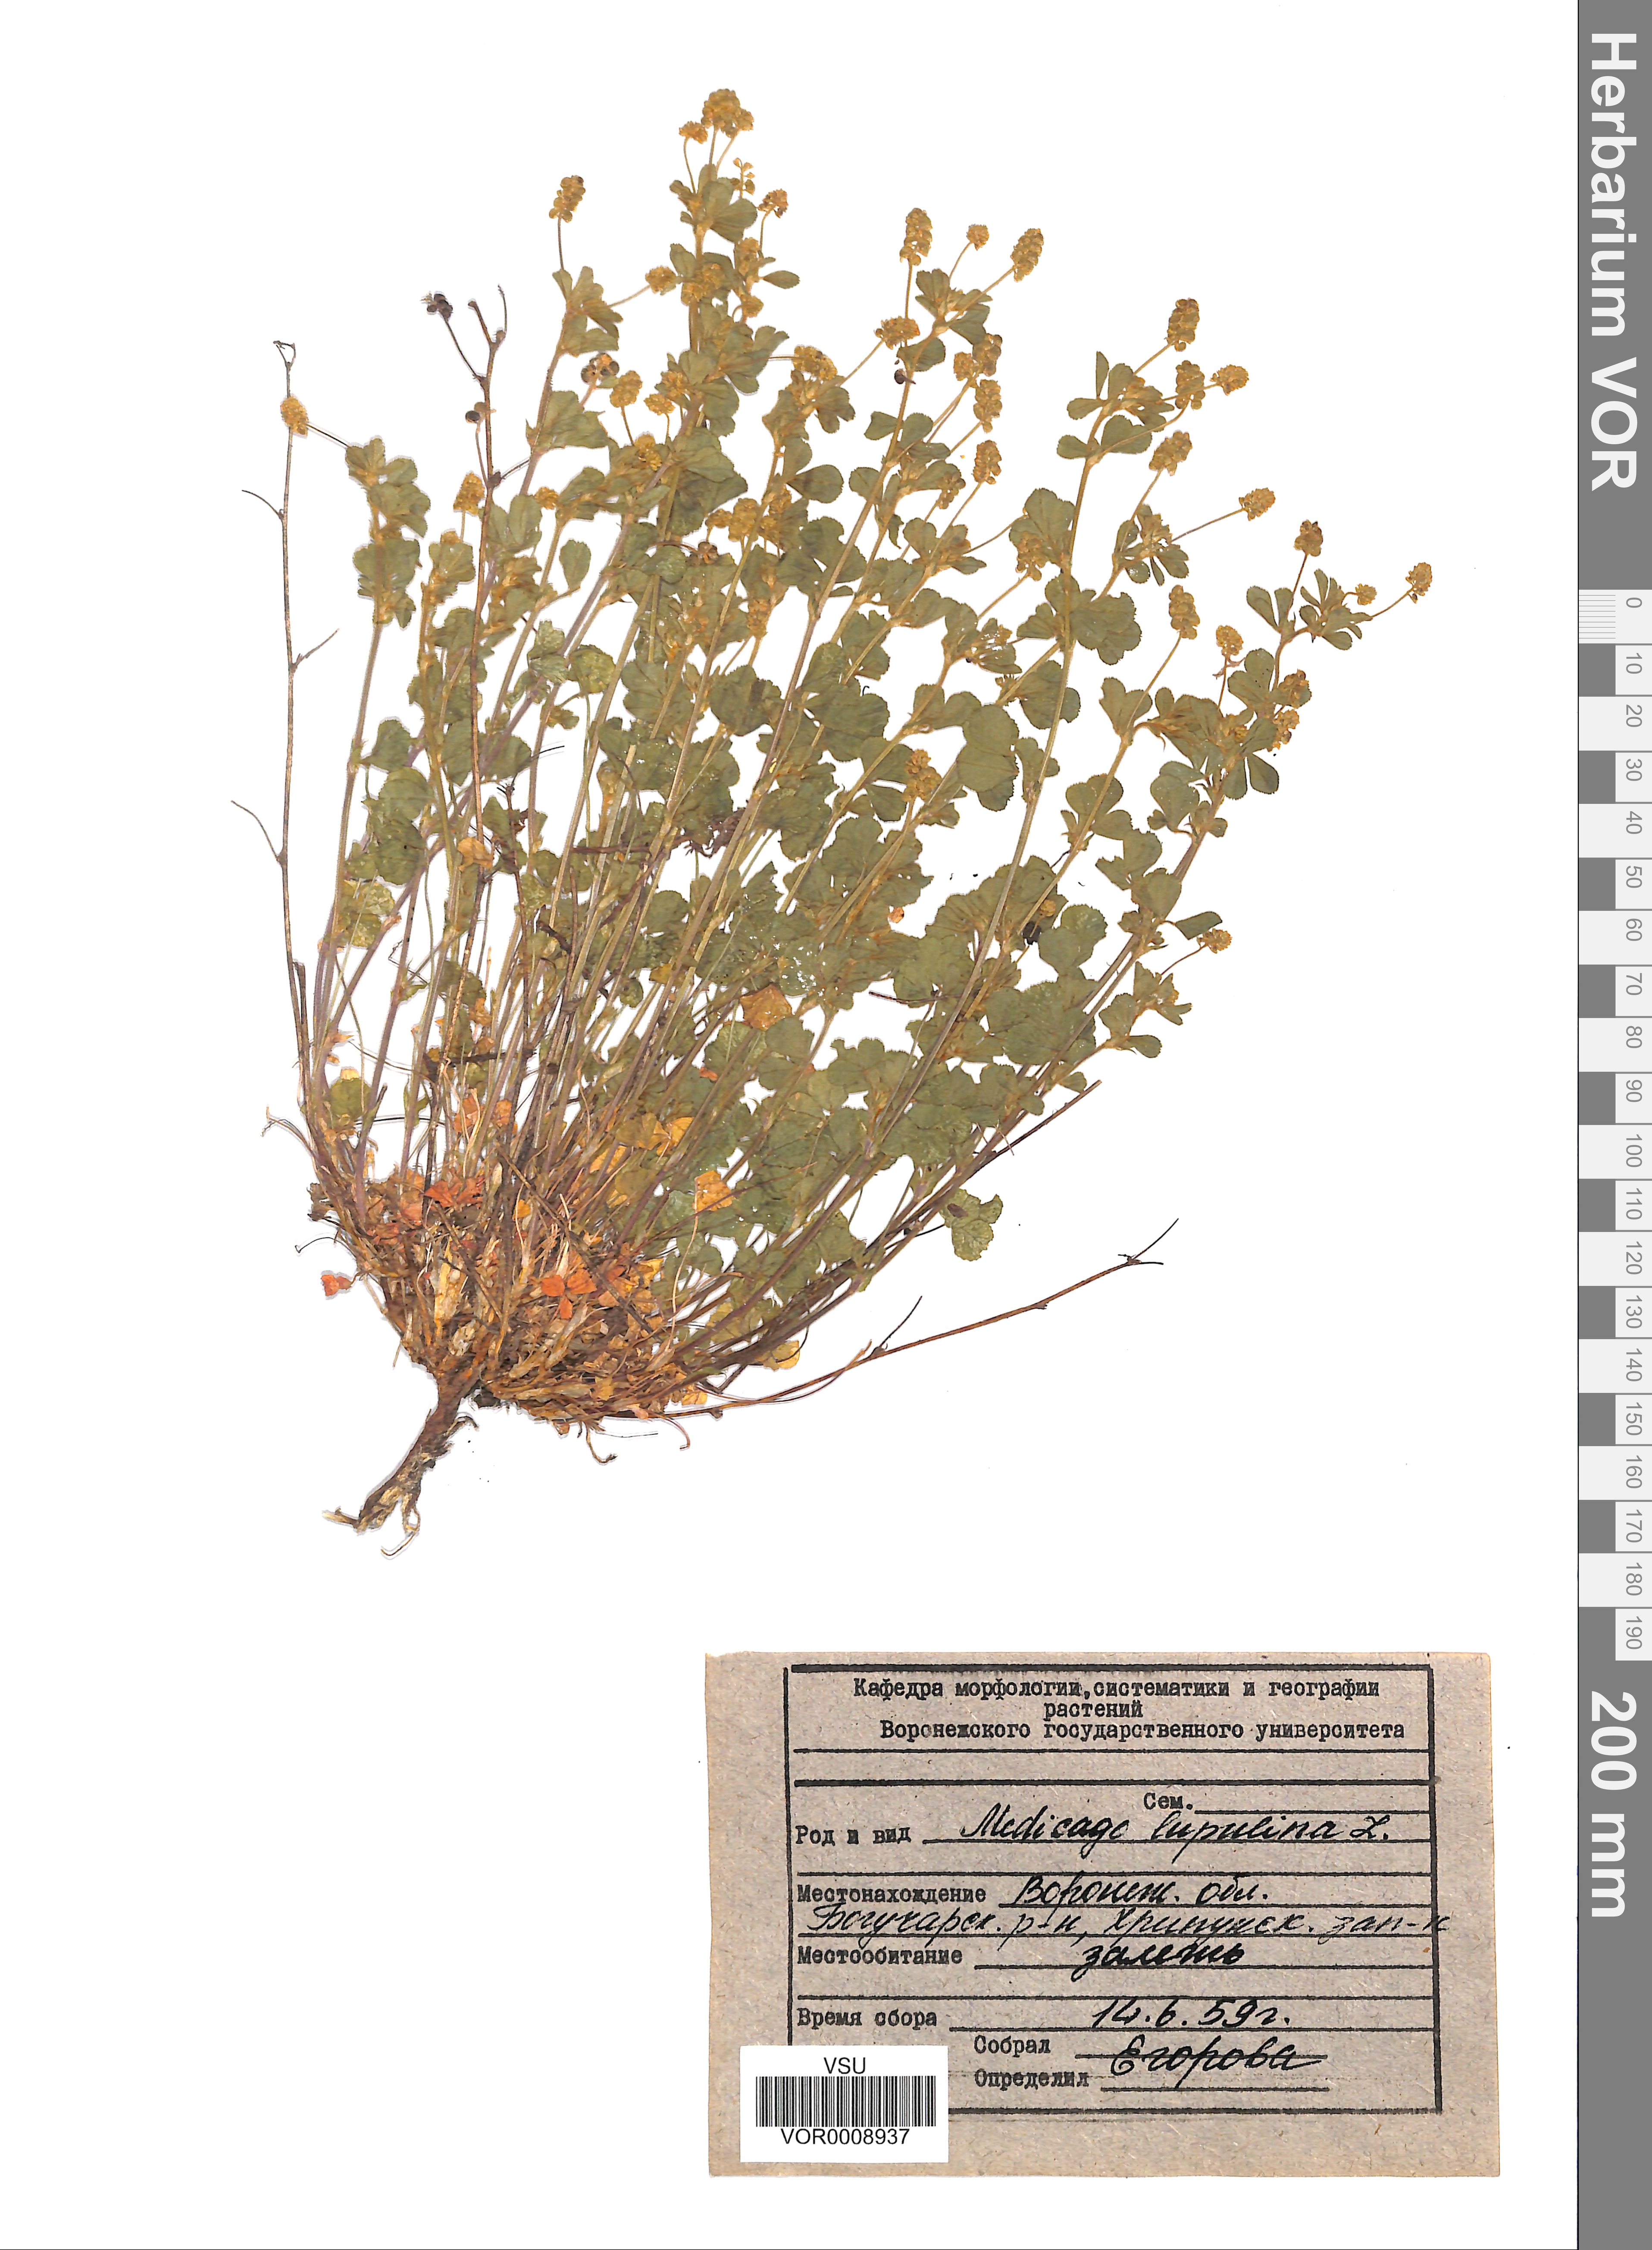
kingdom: Plantae
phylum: Tracheophyta
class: Magnoliopsida
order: Fabales
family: Fabaceae
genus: Medicago
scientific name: Medicago lupulina
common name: Black medick
